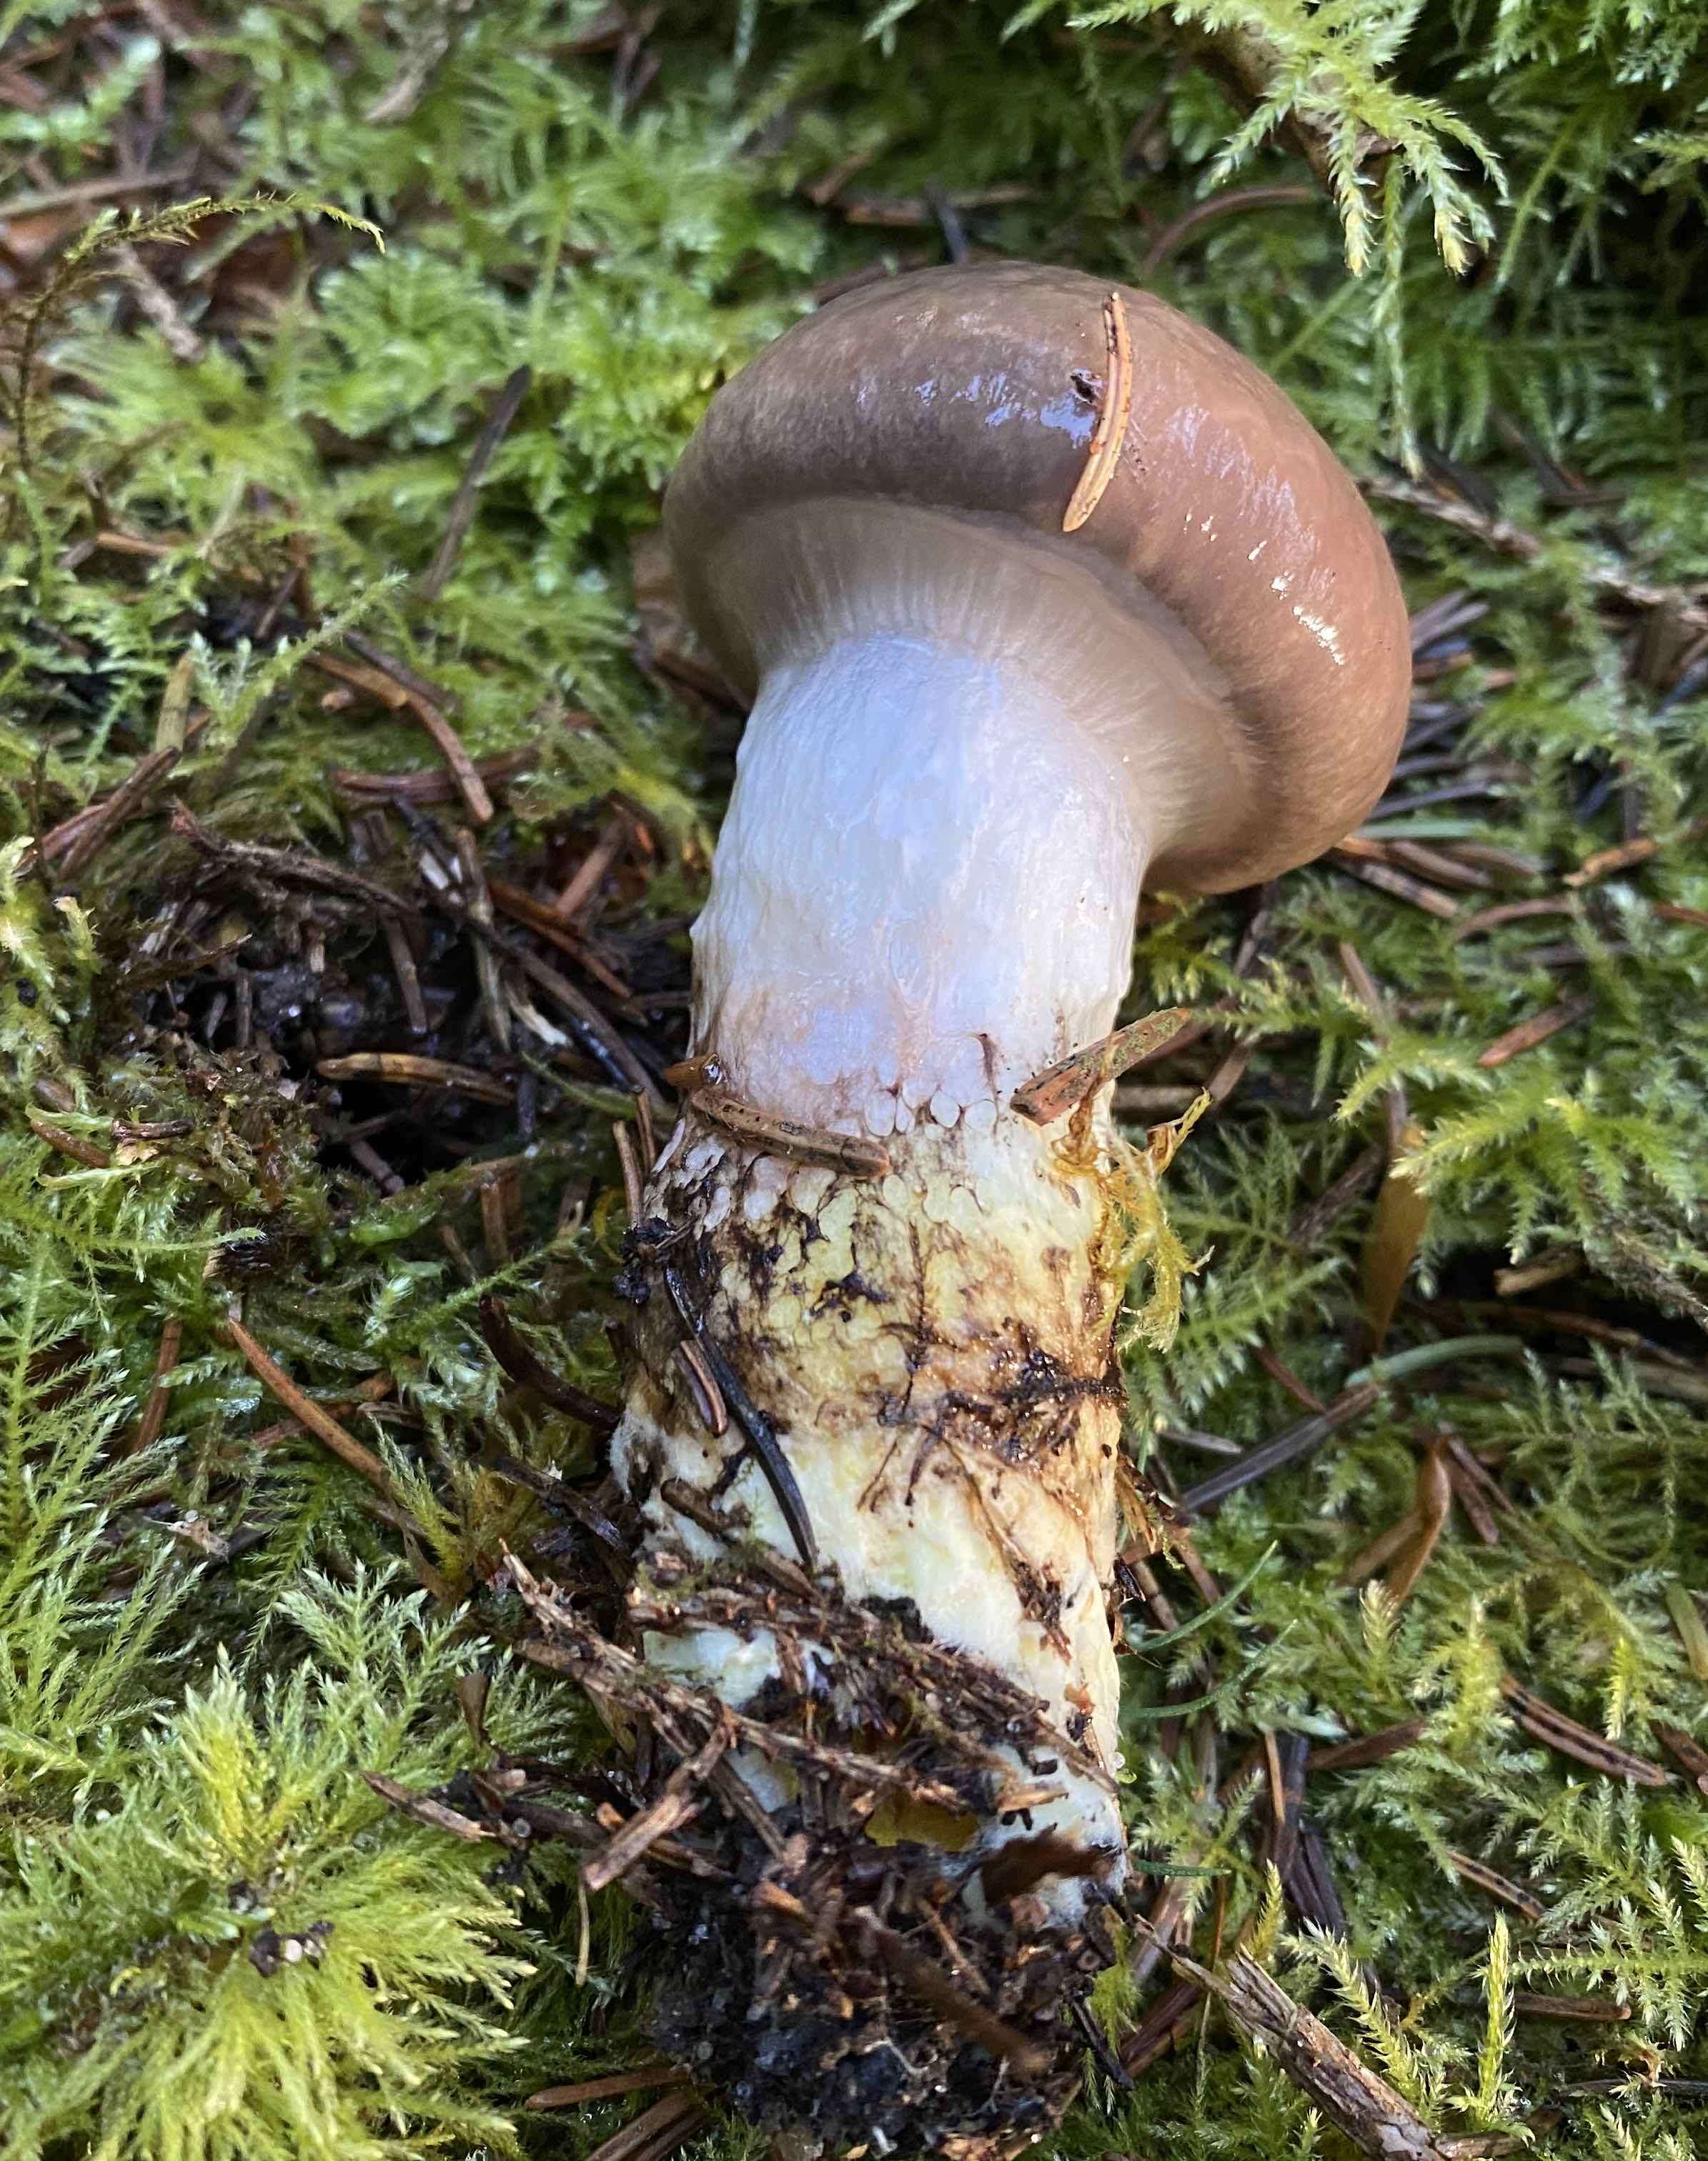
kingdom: Fungi
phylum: Basidiomycota
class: Agaricomycetes
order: Boletales
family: Gomphidiaceae
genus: Gomphidius
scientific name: Gomphidius glutinosus
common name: grå slimslør
